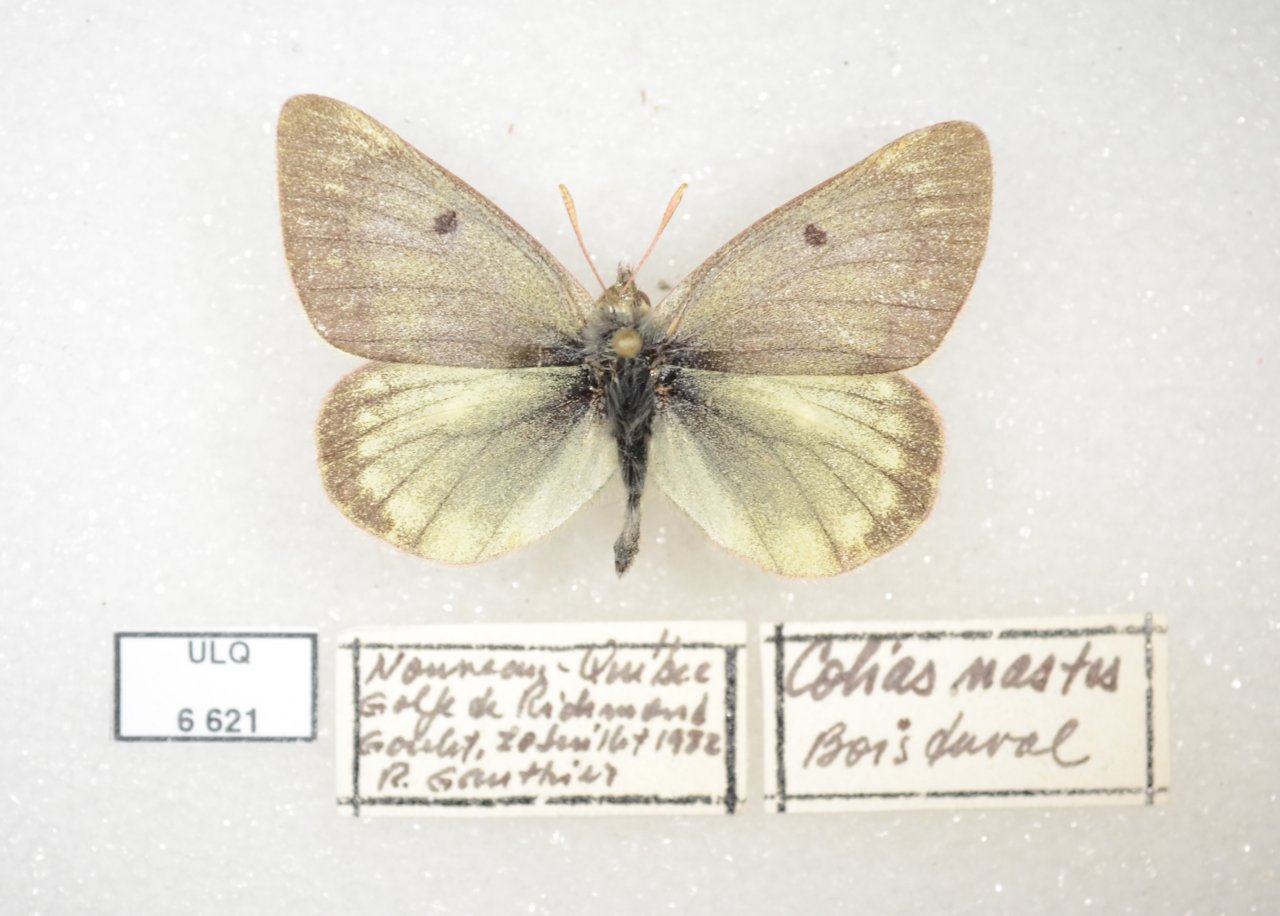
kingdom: Animalia
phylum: Arthropoda
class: Insecta
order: Lepidoptera
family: Pieridae
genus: Colias
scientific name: Colias nastes
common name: Labrador Sulphur
